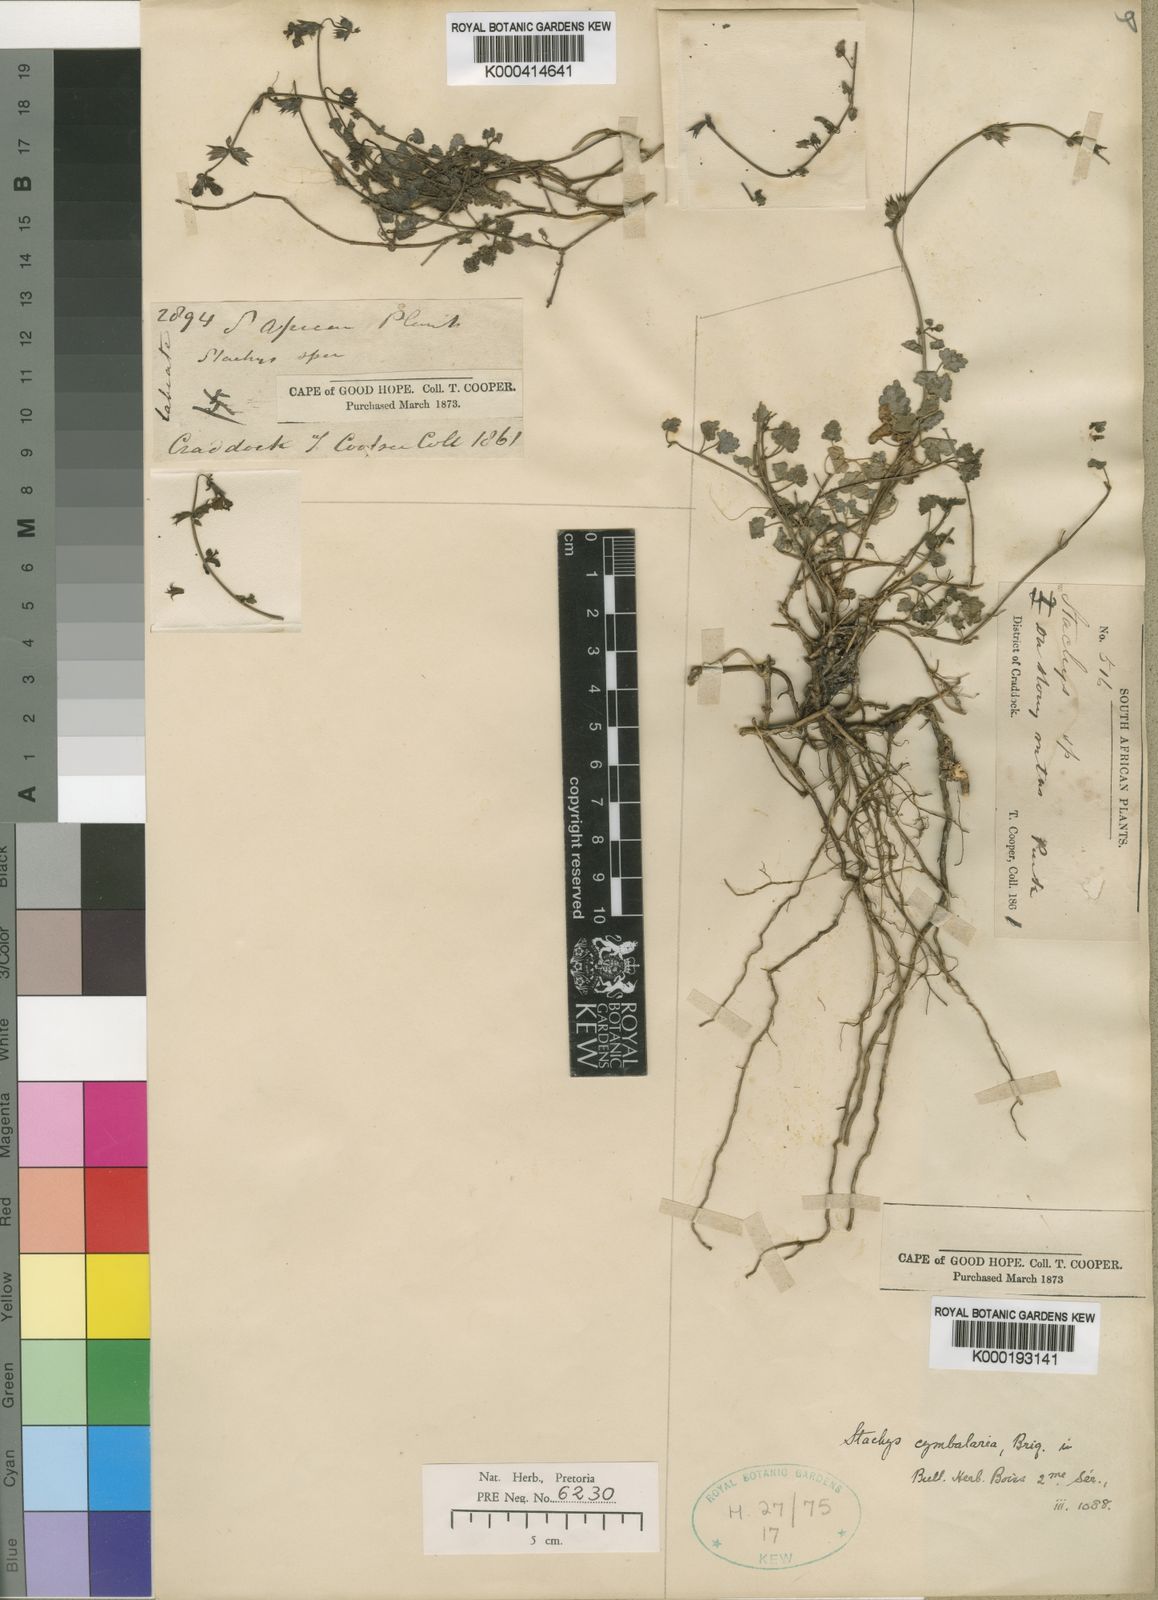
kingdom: Plantae
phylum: Tracheophyta
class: Magnoliopsida
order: Lamiales
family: Lamiaceae
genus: Stachys
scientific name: Stachys cymbalaria
